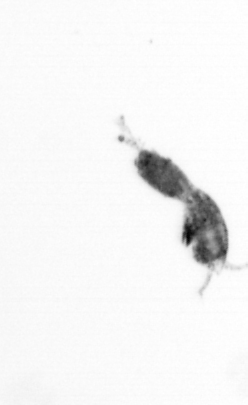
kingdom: Animalia
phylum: Arthropoda
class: Copepoda
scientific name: Copepoda
